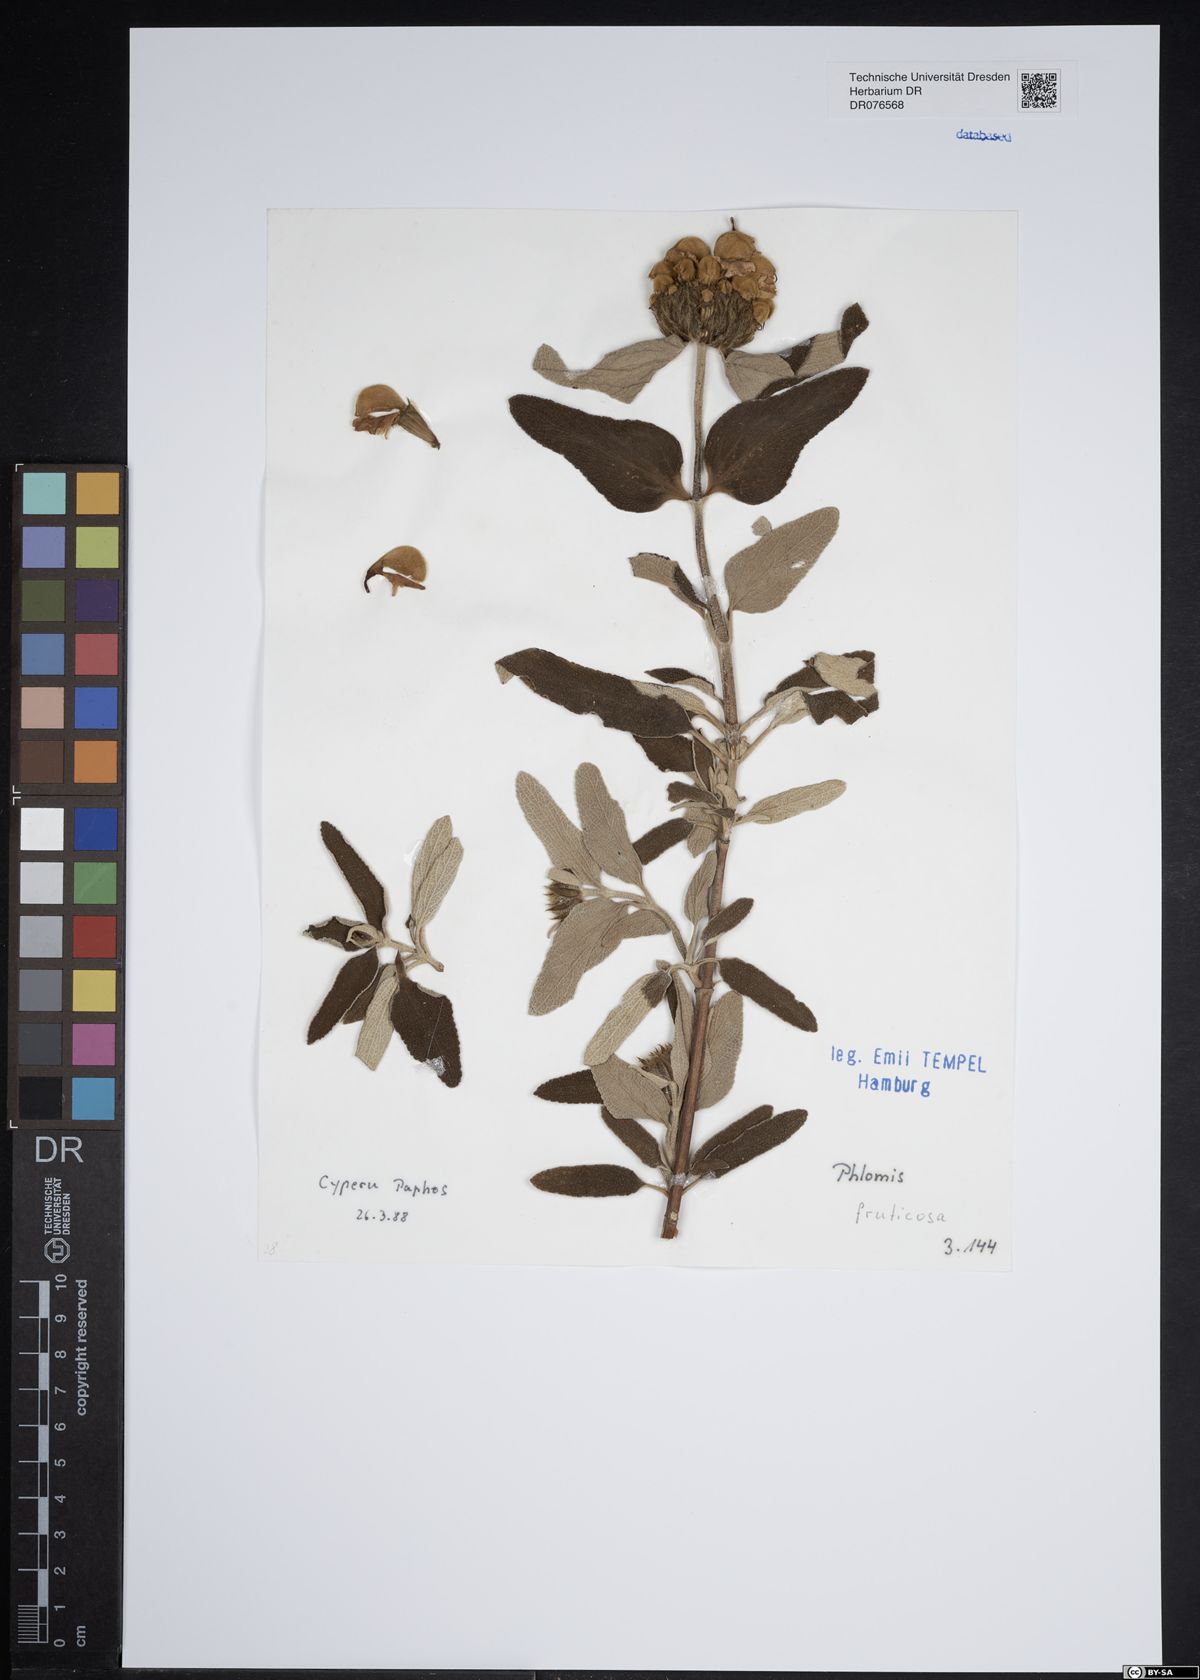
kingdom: Plantae
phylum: Tracheophyta
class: Magnoliopsida
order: Lamiales
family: Lamiaceae
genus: Phlomis
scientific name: Phlomis fruticosa
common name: Jerusalem sage
